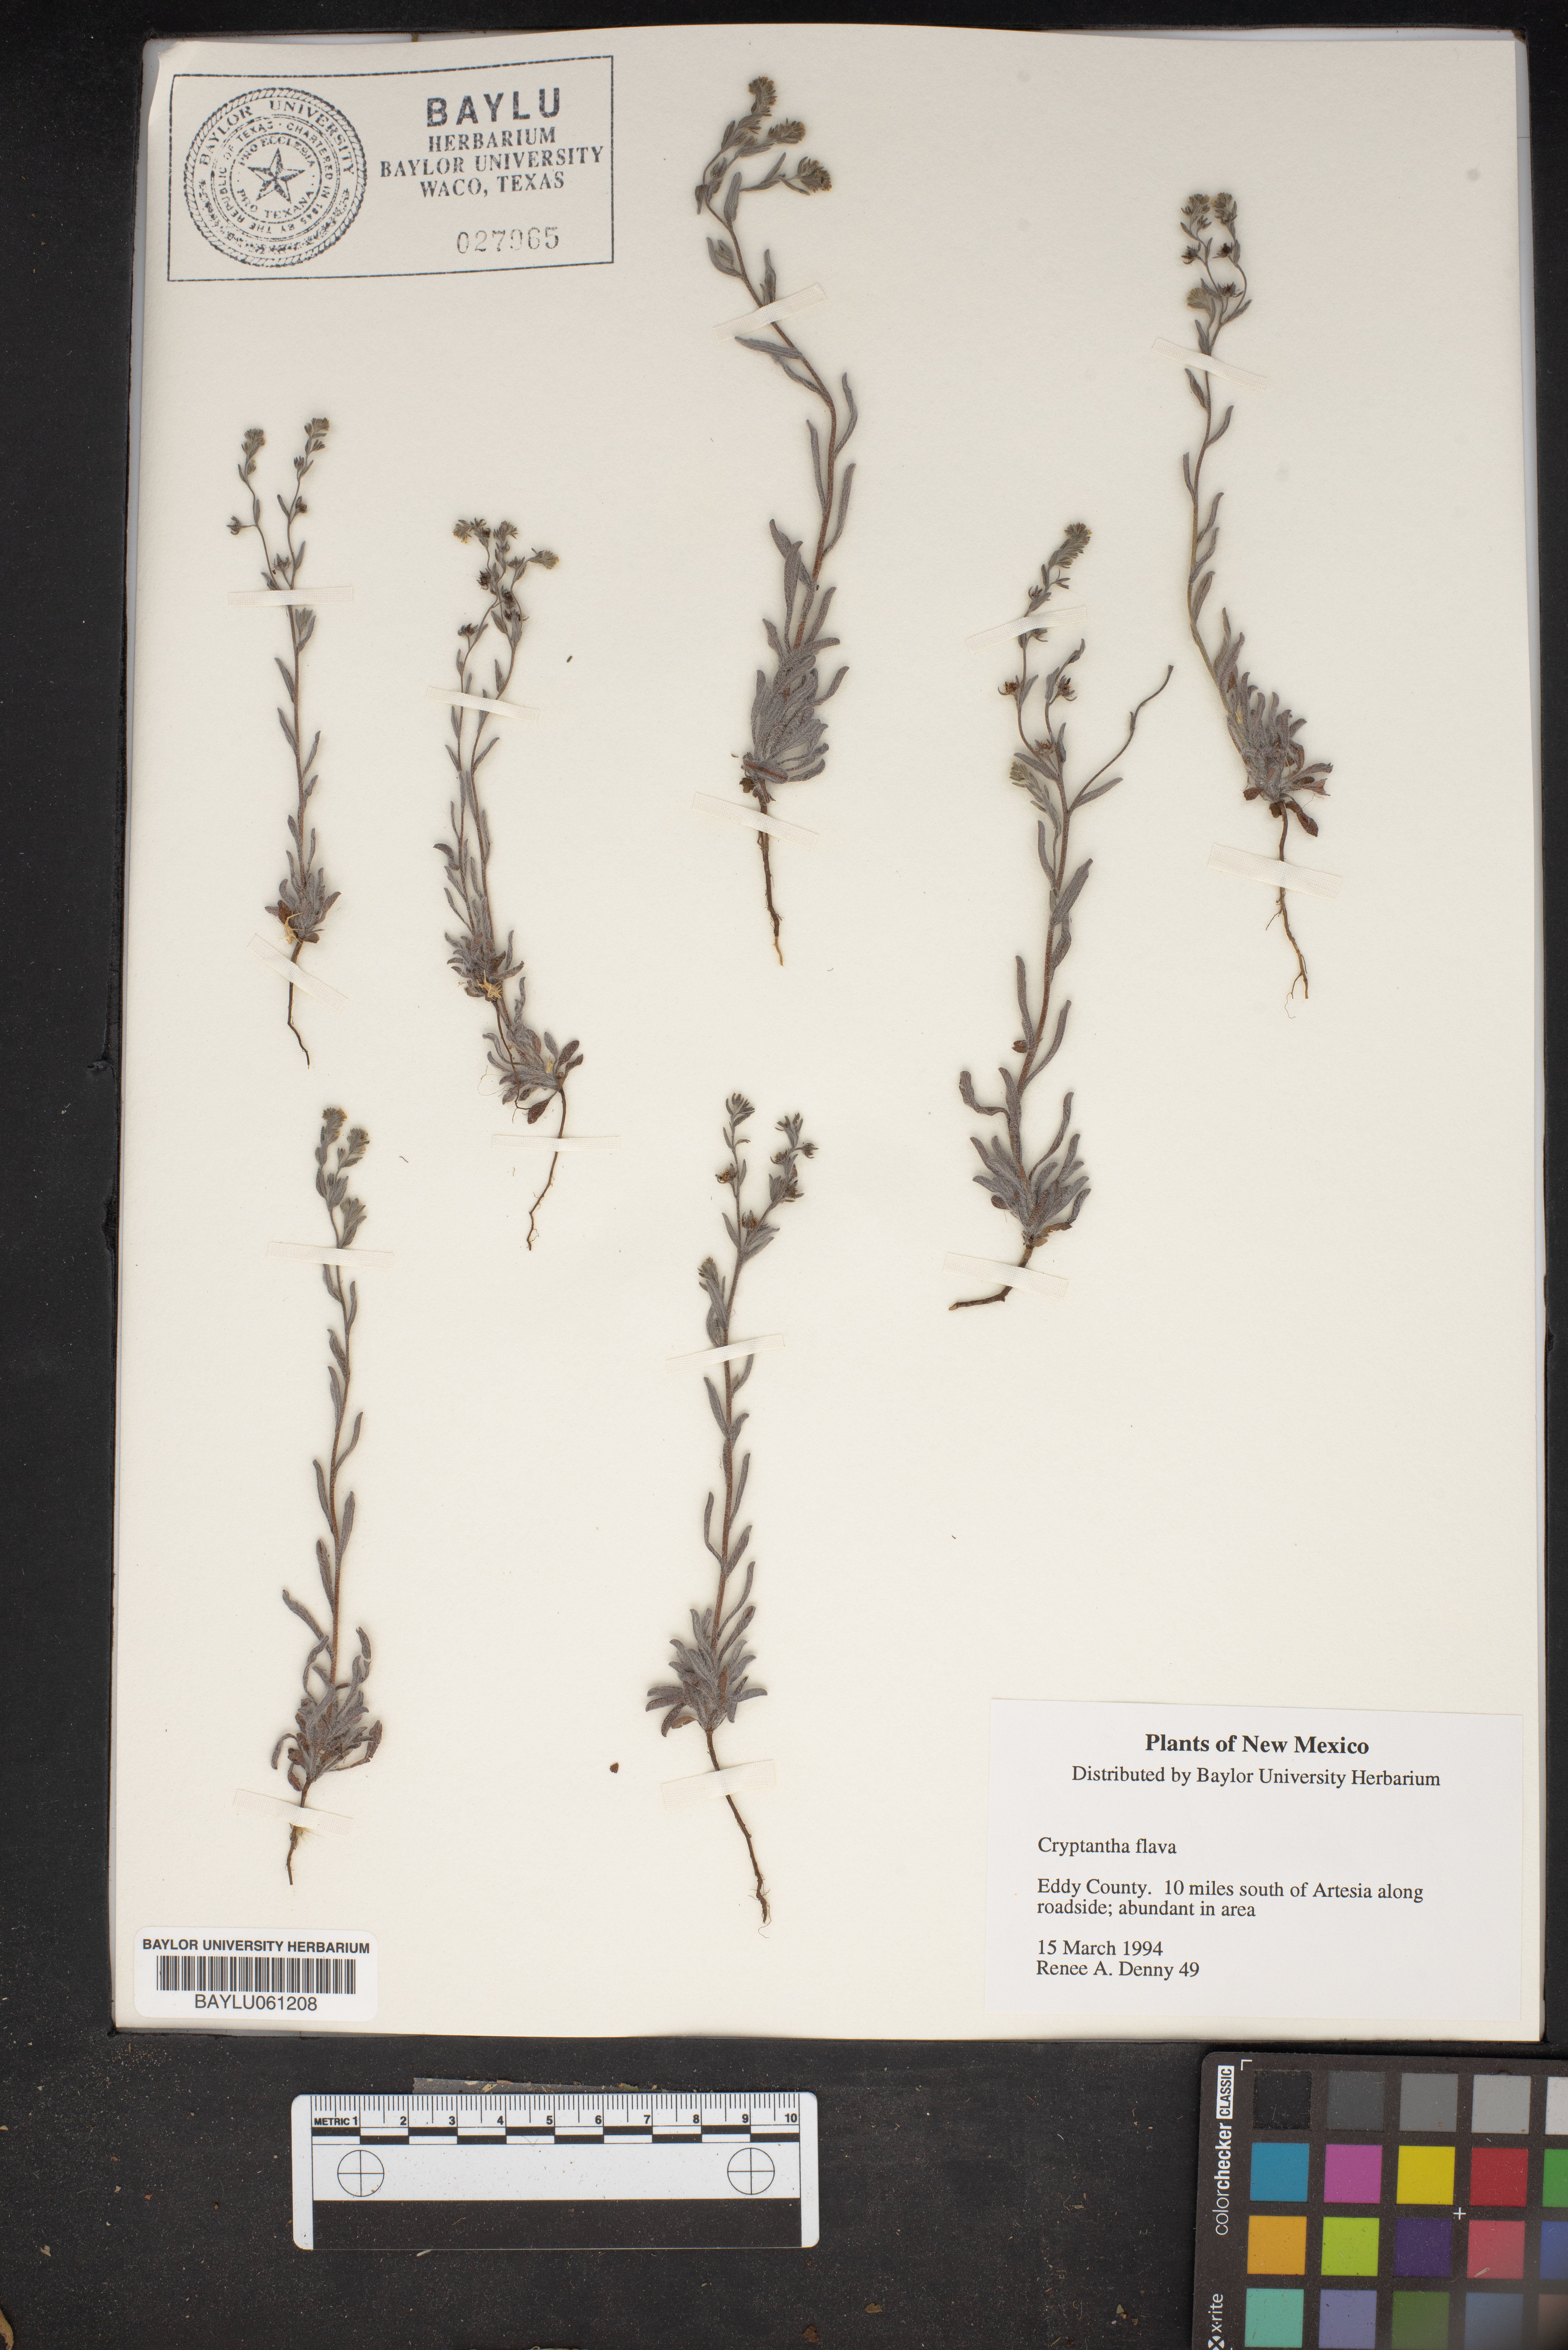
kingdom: Plantae
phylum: Tracheophyta
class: Magnoliopsida
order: Boraginales
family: Boraginaceae
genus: Oreocarya
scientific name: Oreocarya flava
